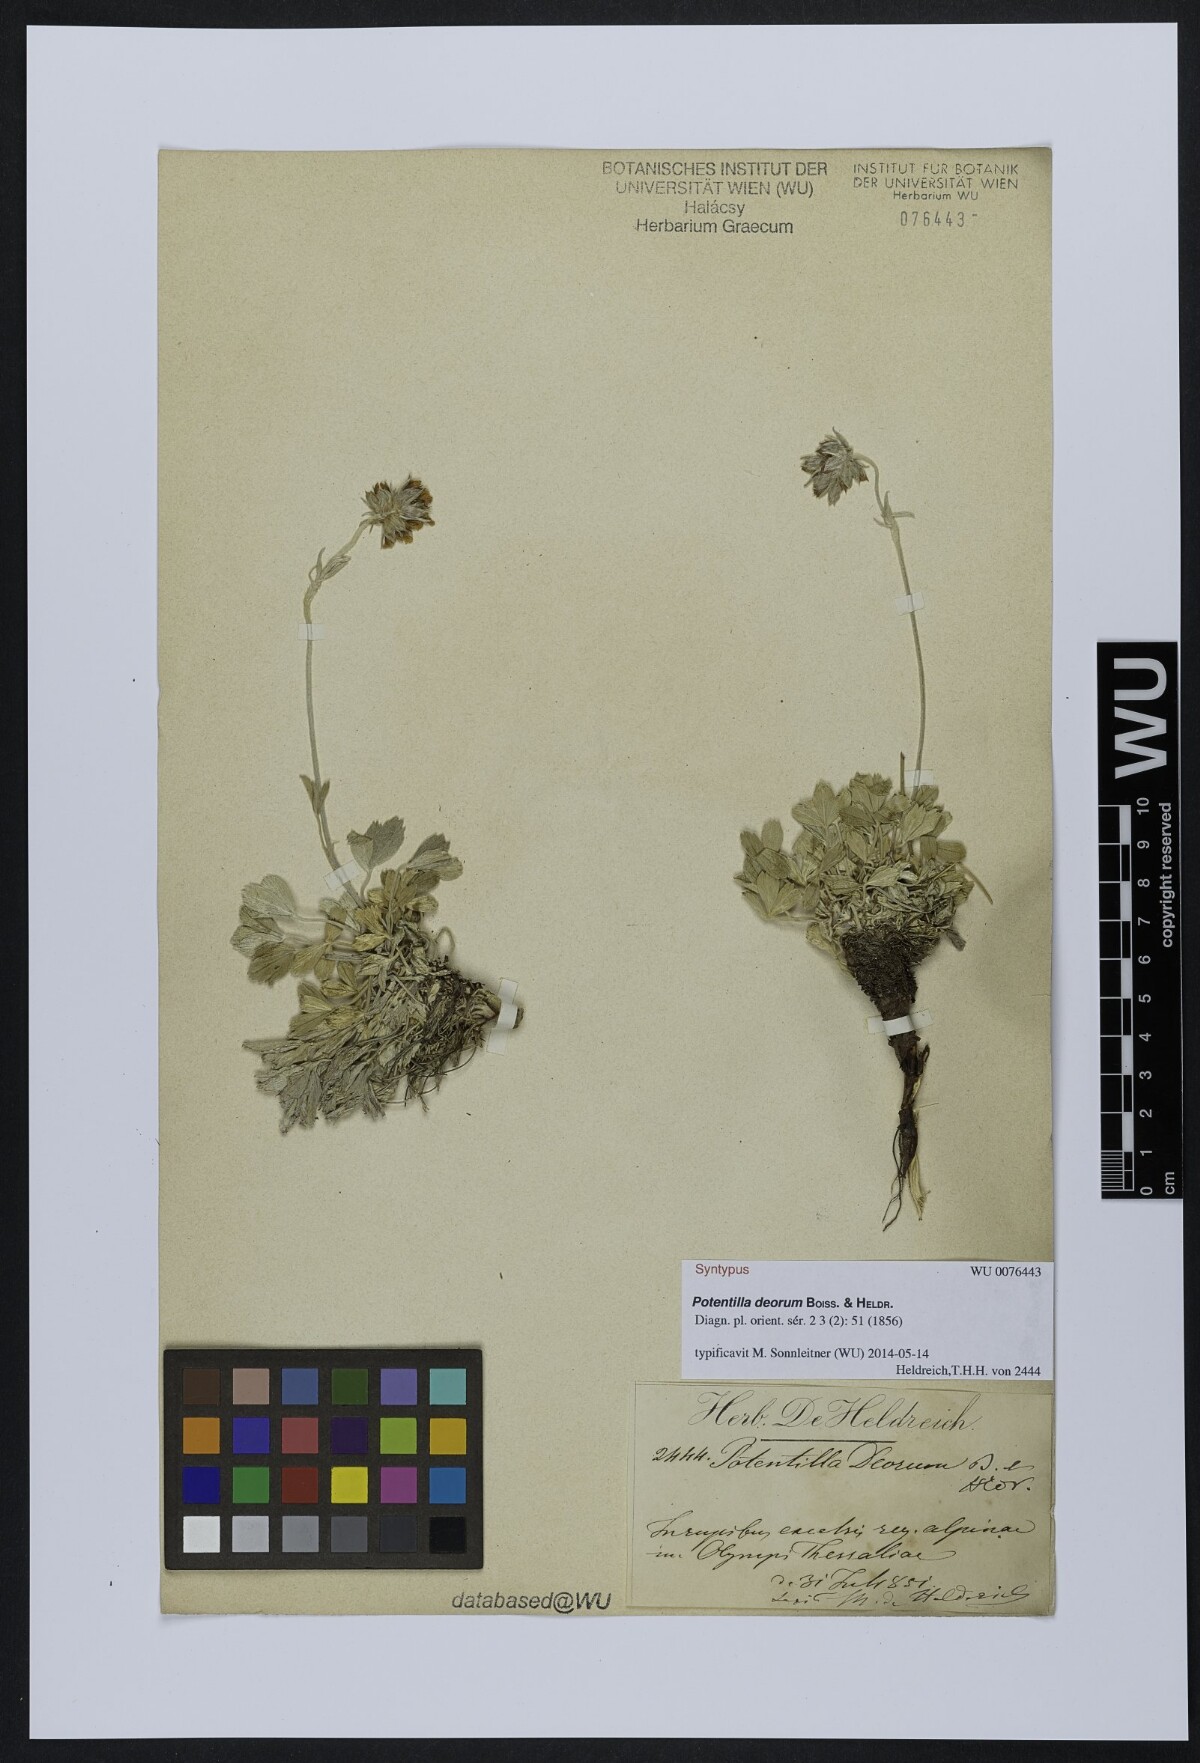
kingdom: Plantae
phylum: Tracheophyta
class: Magnoliopsida
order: Rosales
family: Rosaceae
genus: Potentilla
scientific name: Potentilla deorum
